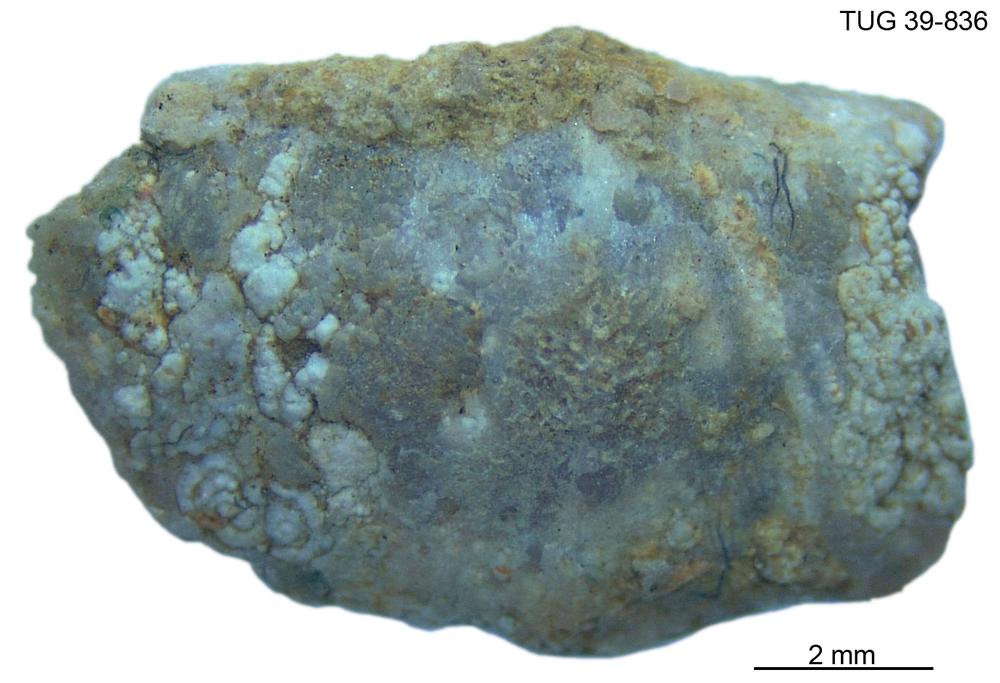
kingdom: Animalia
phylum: Brachiopoda
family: Oldhaminidae
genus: Eoplectodonta
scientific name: Eoplectodonta
